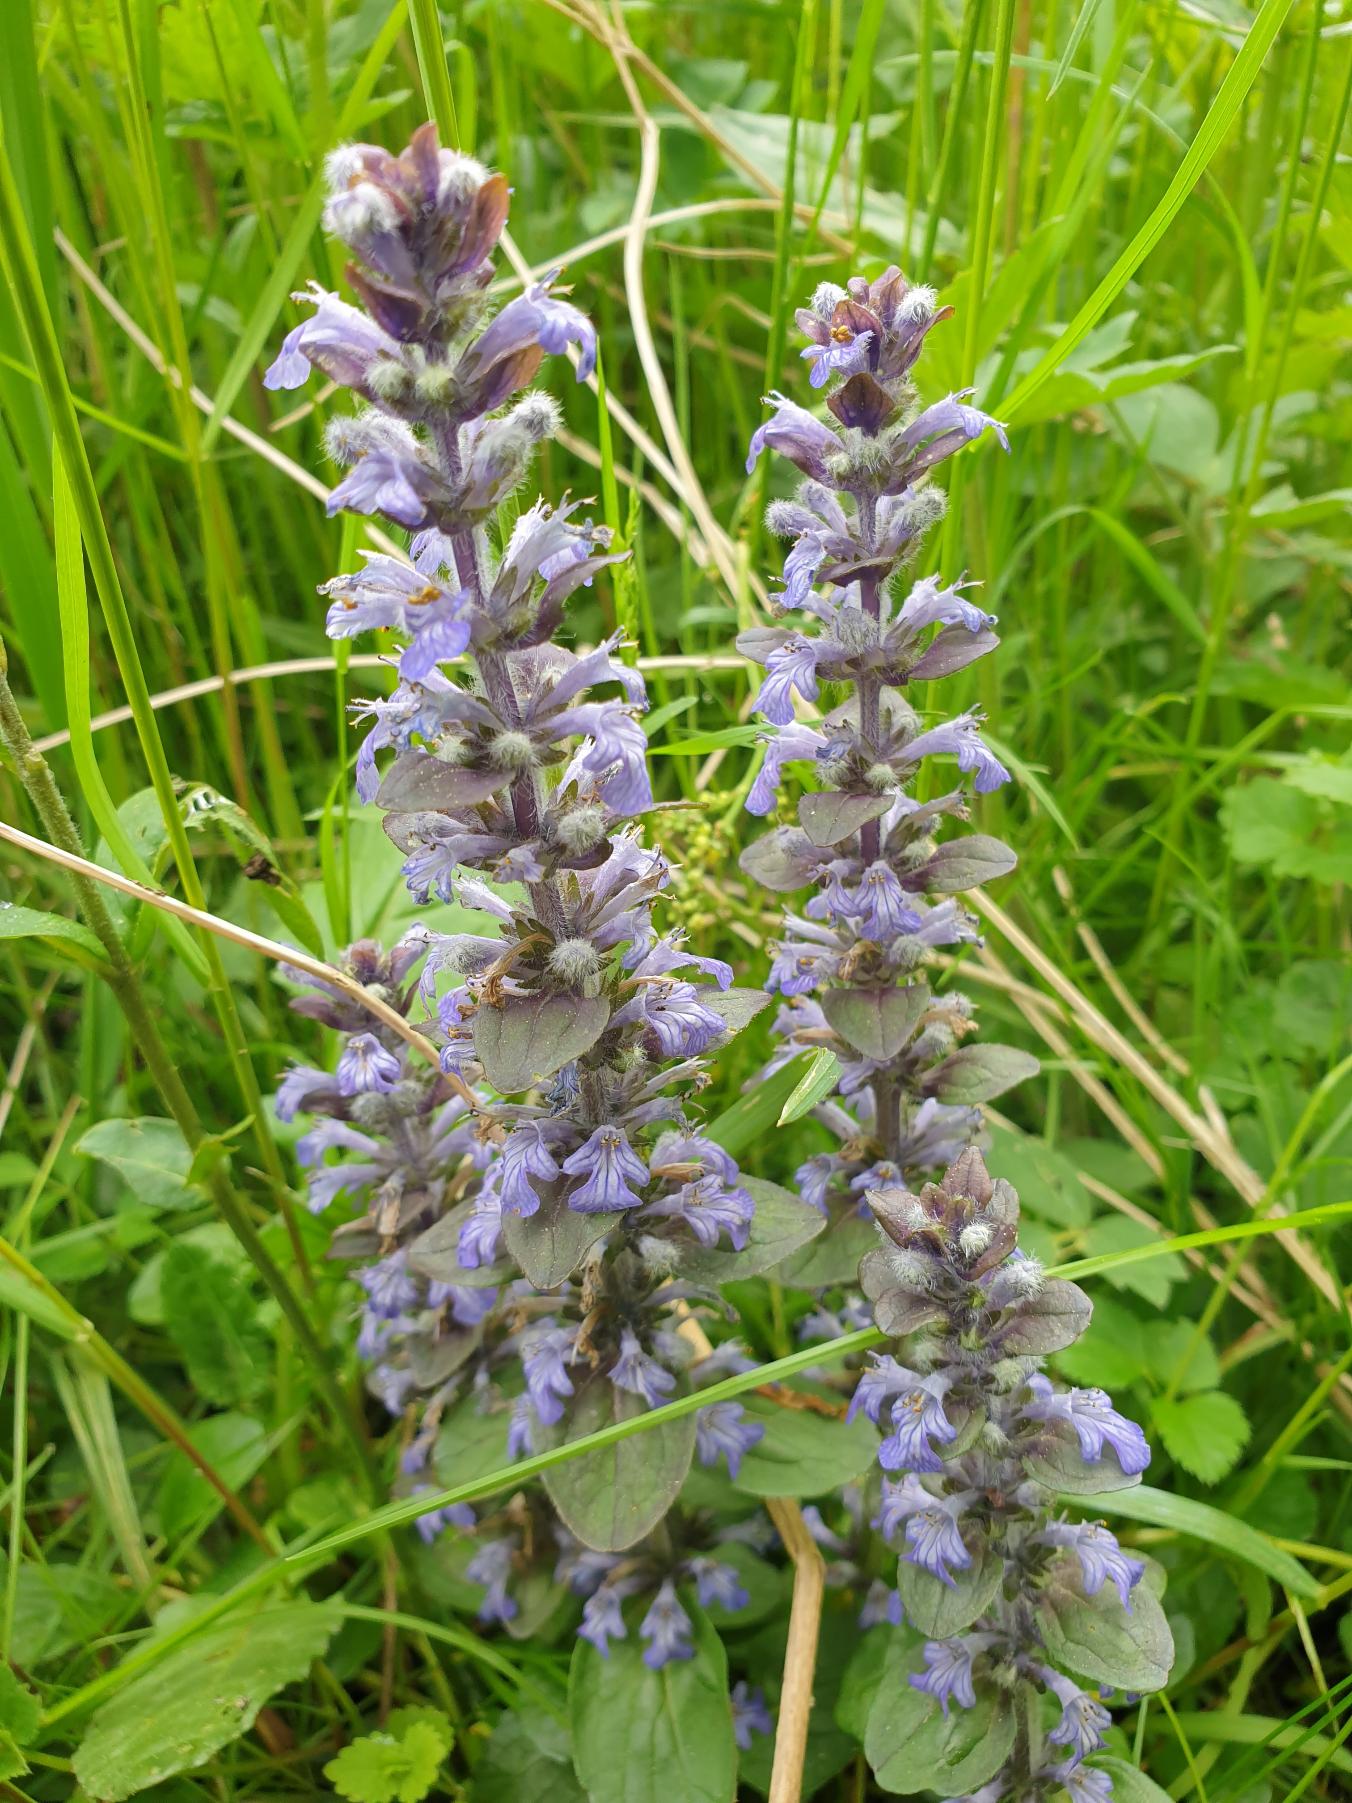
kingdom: Plantae
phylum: Tracheophyta
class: Magnoliopsida
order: Lamiales
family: Lamiaceae
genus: Ajuga
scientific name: Ajuga reptans
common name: Krybende læbeløs
